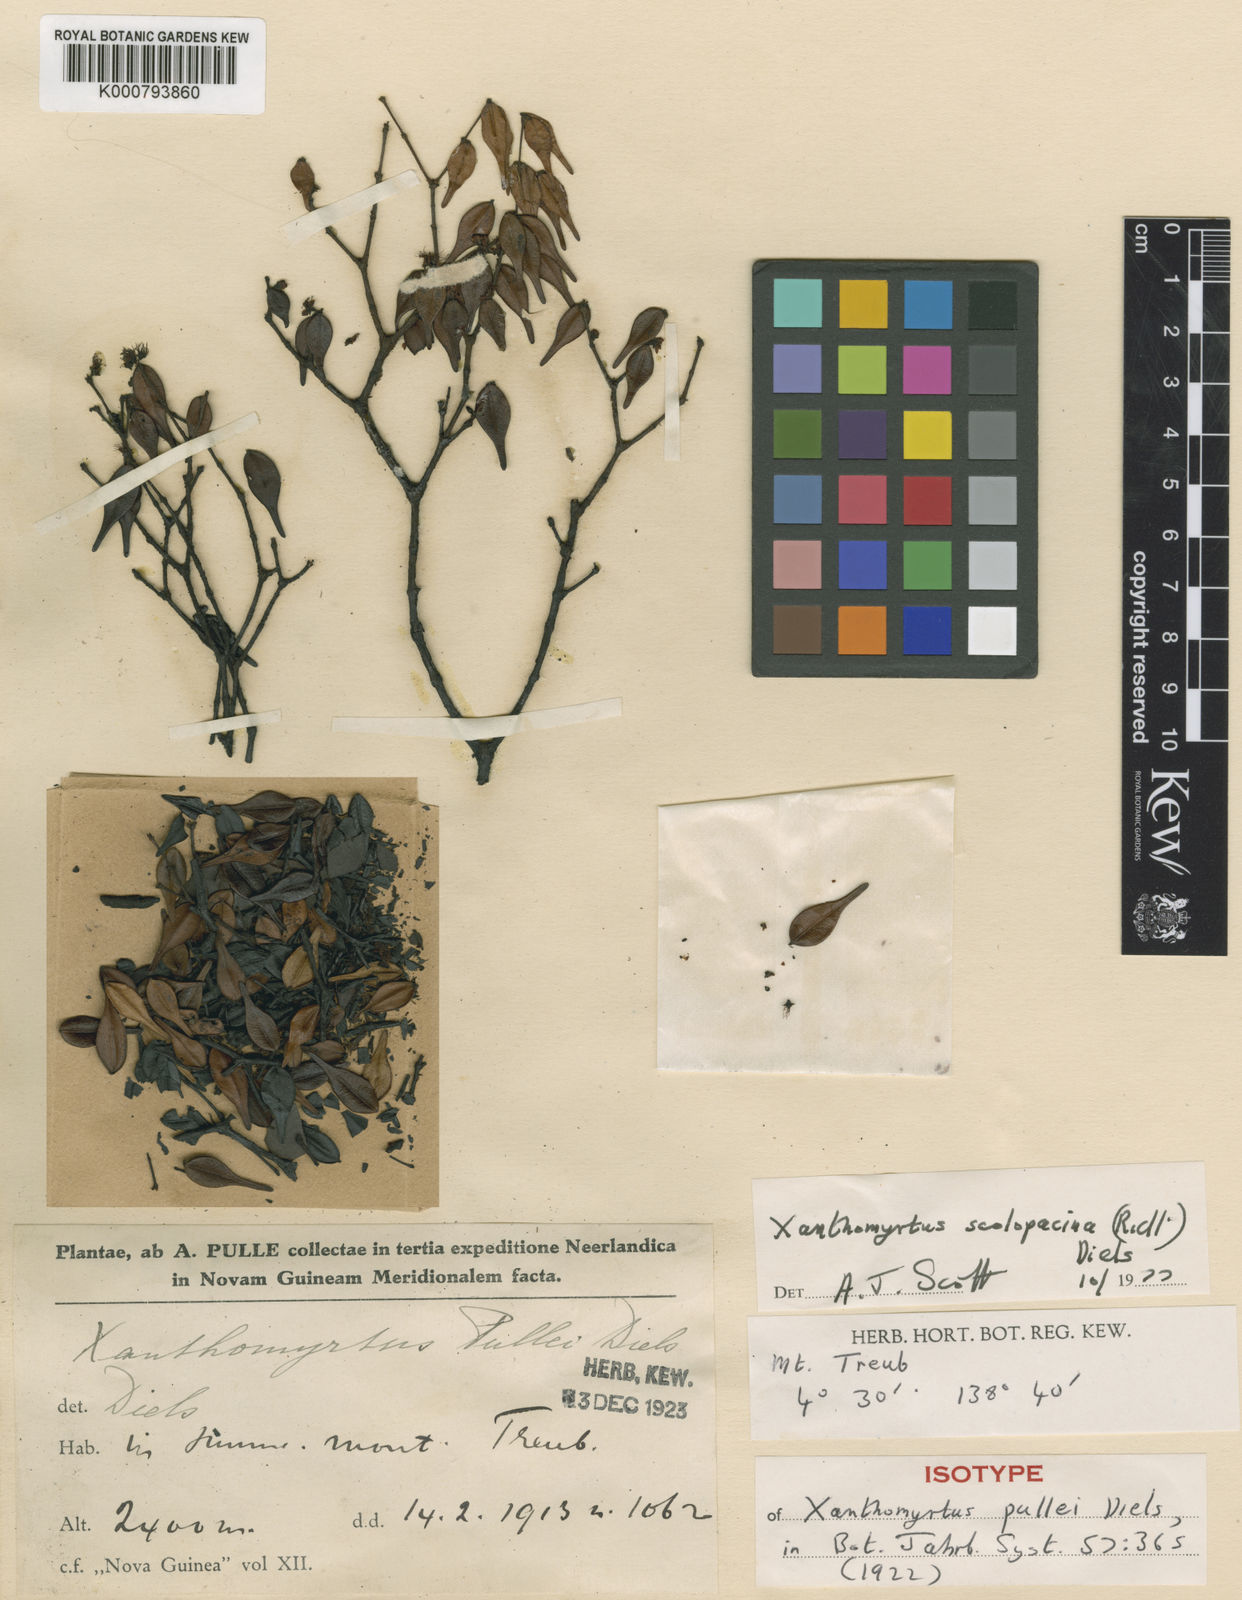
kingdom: Plantae
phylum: Tracheophyta
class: Magnoliopsida
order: Myrtales
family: Myrtaceae
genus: Xanthomyrtus
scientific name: Xanthomyrtus scolopacina
